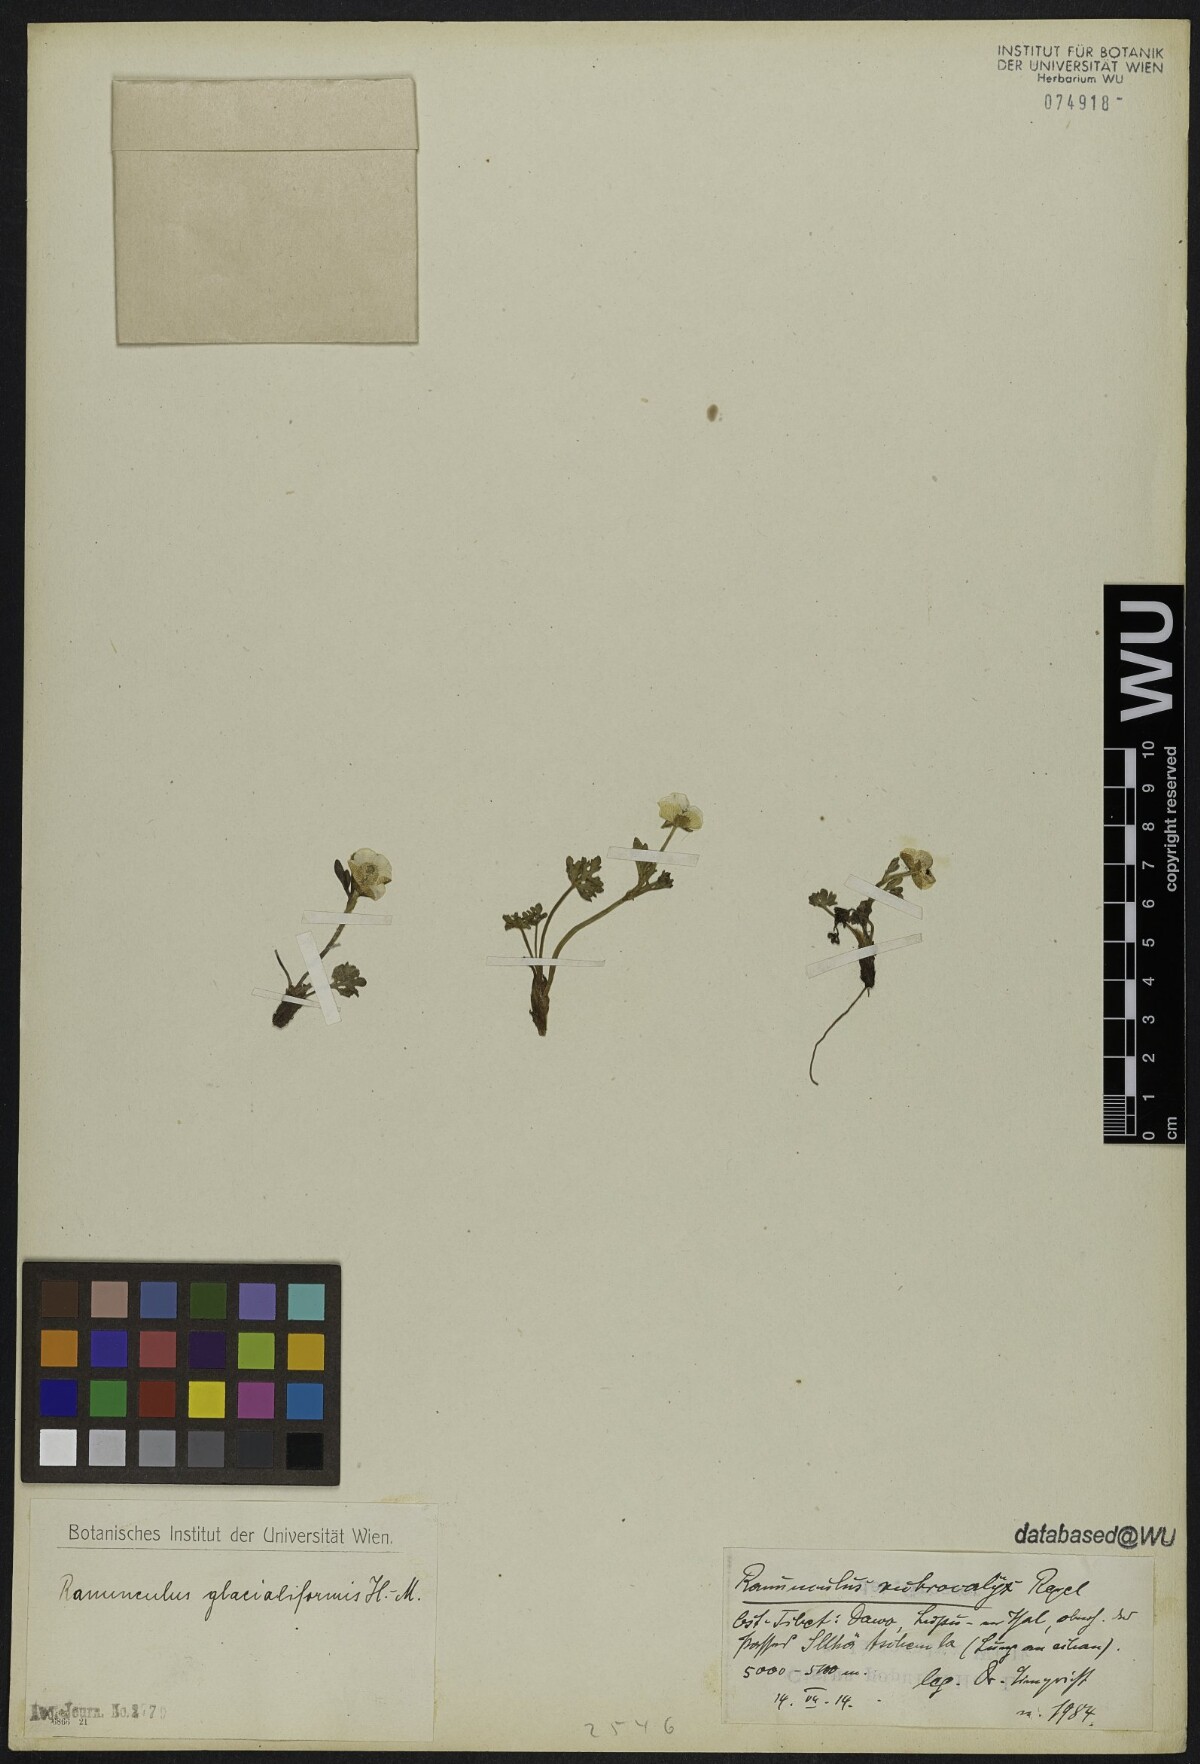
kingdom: Plantae
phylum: Tracheophyta
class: Magnoliopsida
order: Ranunculales
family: Ranunculaceae
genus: Ranunculus
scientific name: Ranunculus glacialiformis
